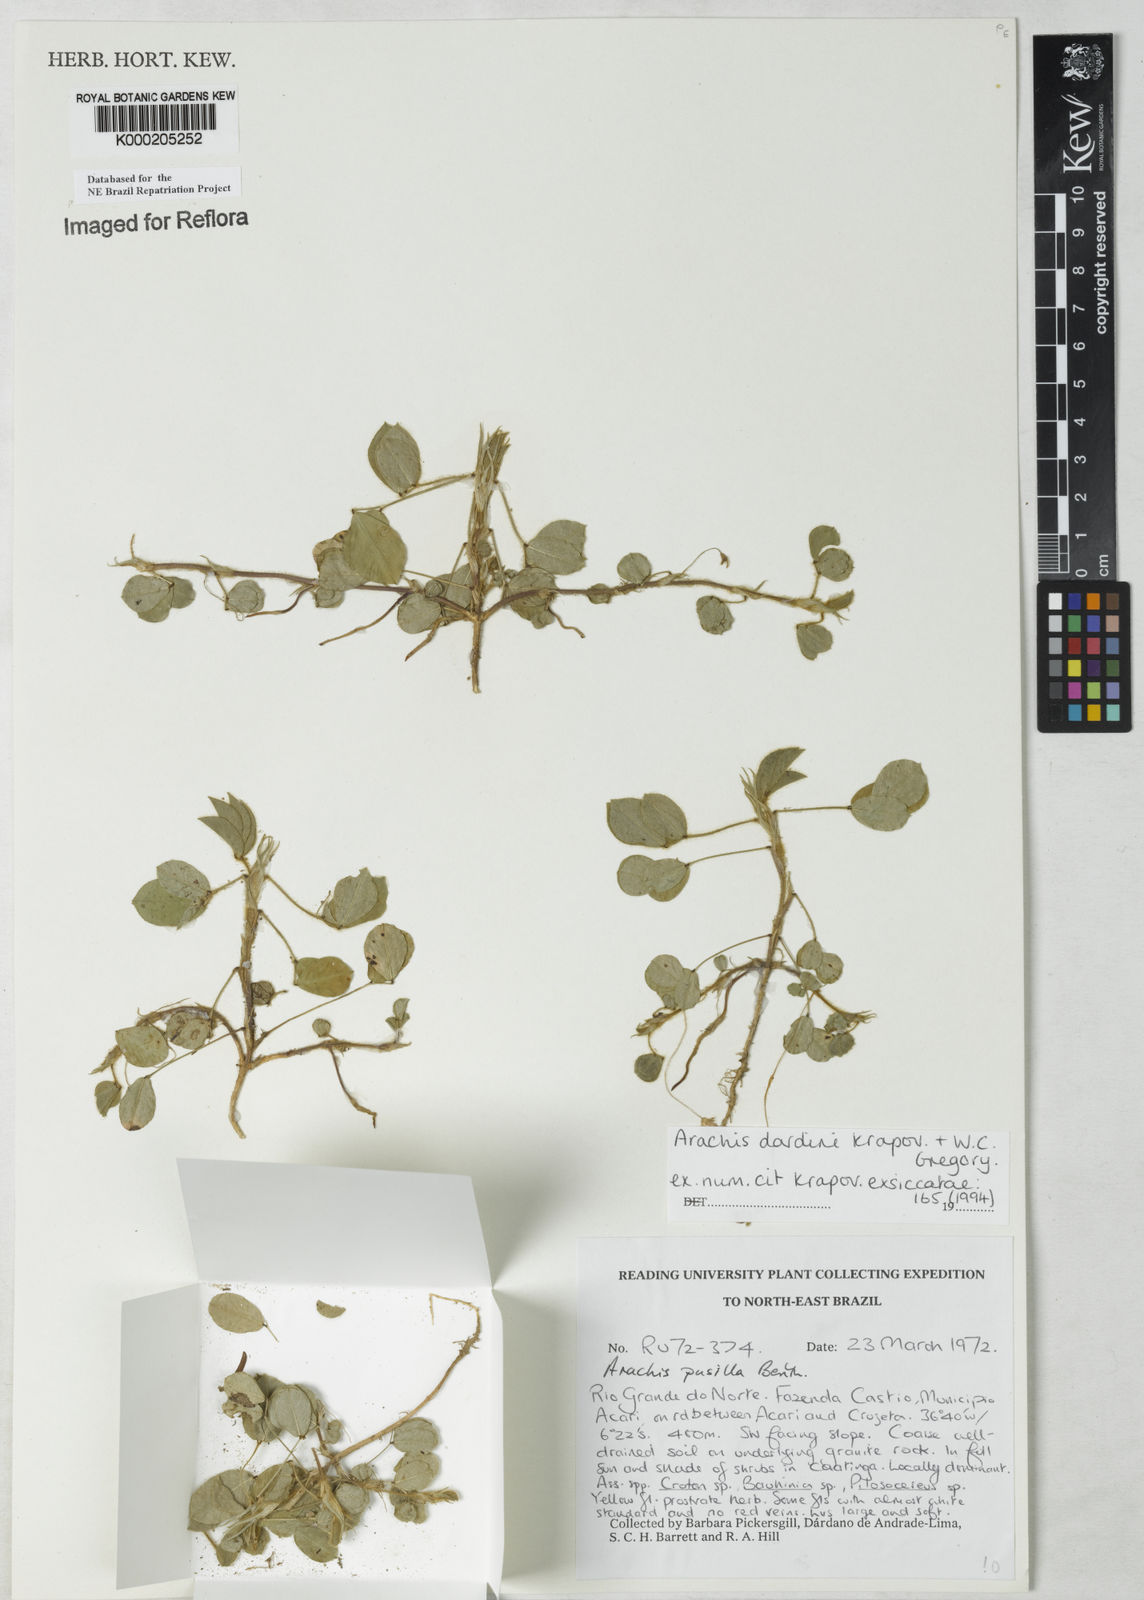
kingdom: Plantae
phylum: Tracheophyta
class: Magnoliopsida
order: Fabales
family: Fabaceae
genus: Arachis
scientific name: Arachis
